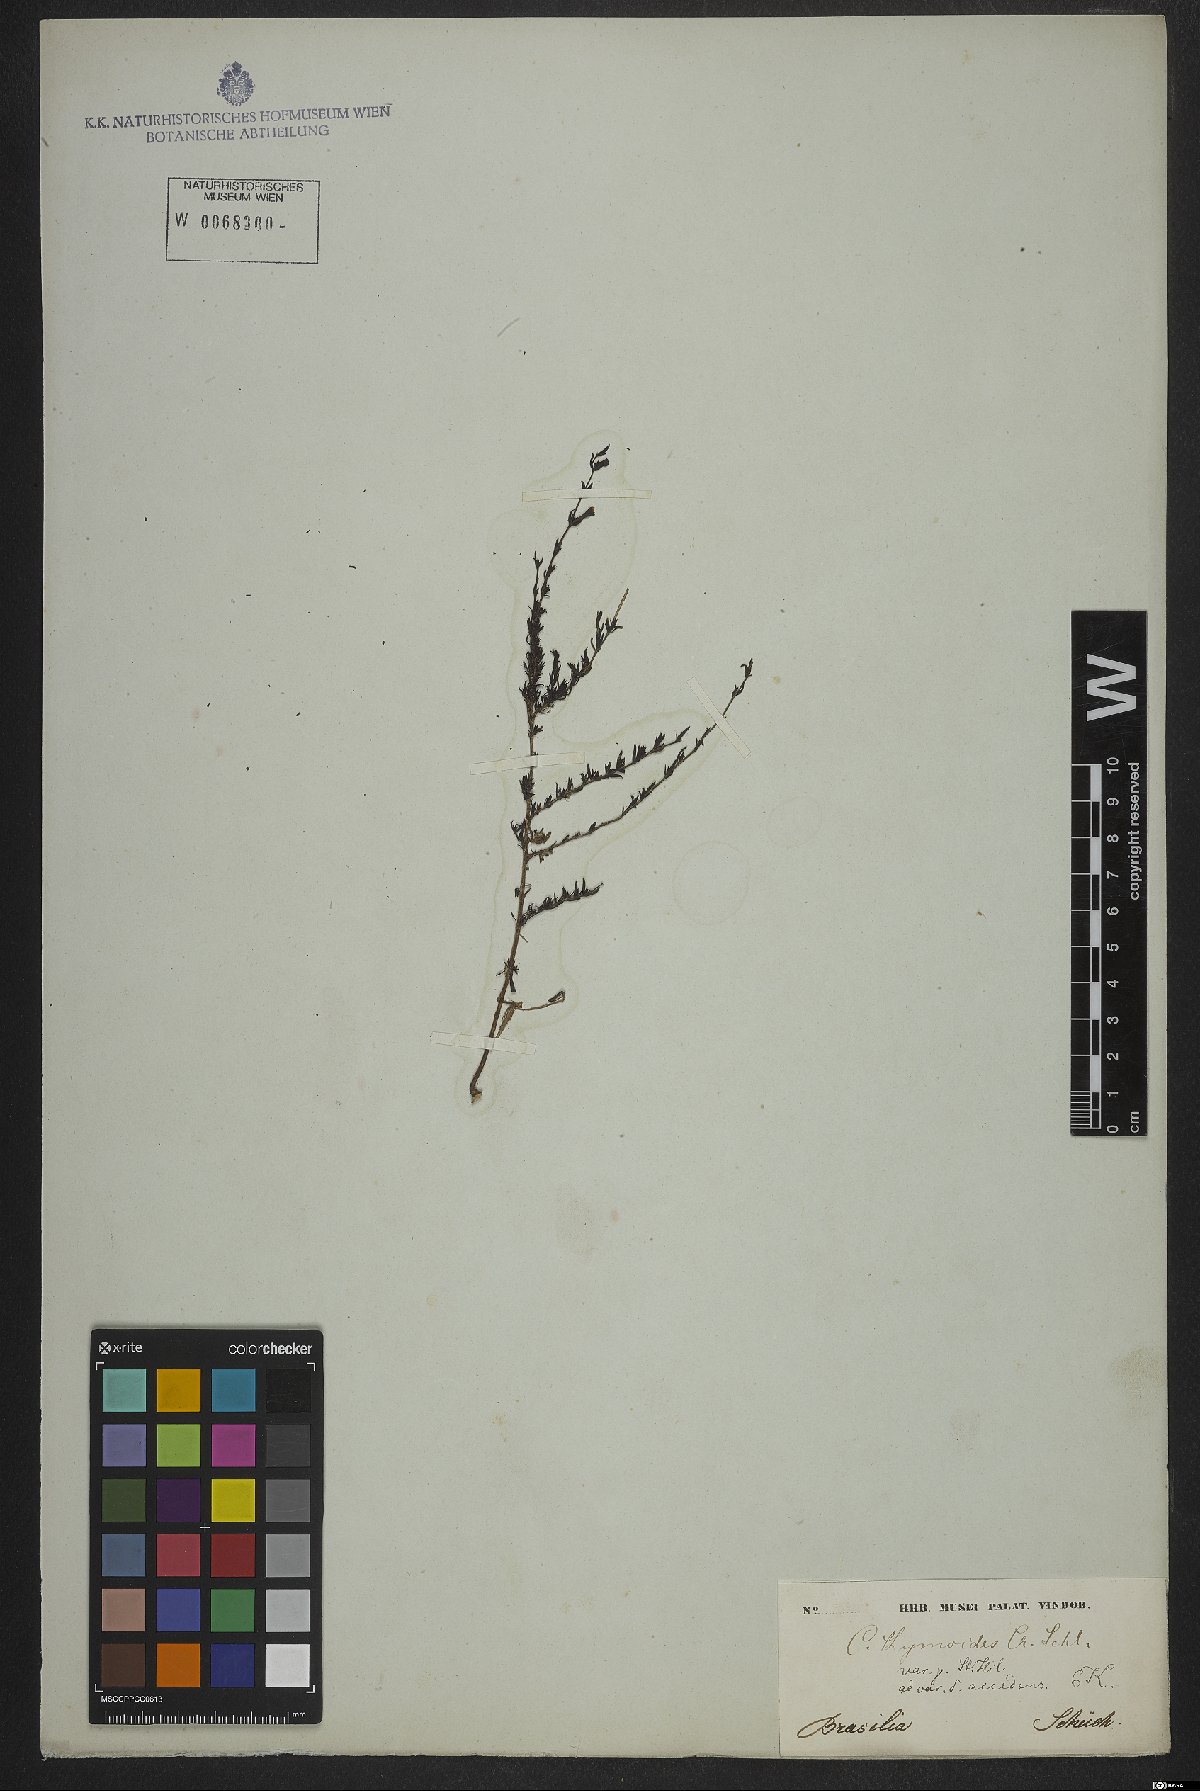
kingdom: Plantae
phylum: Tracheophyta
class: Magnoliopsida
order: Myrtales
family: Lythraceae
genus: Cuphea
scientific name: Cuphea thymoides
